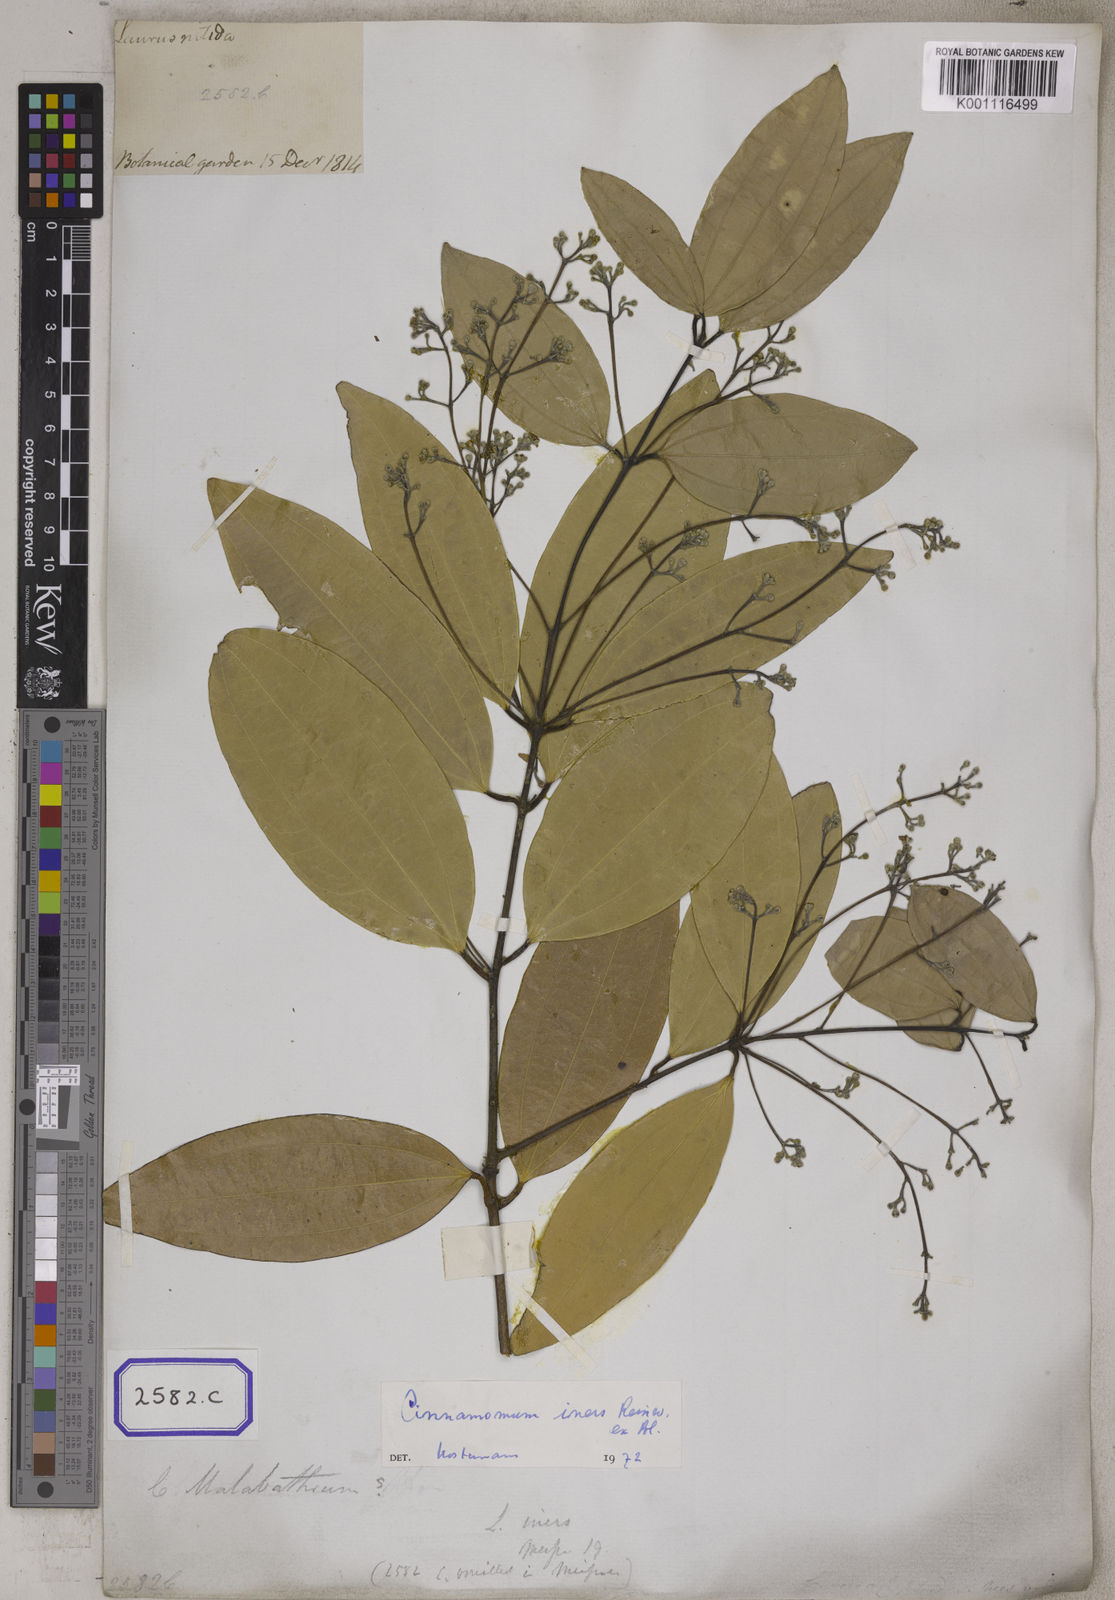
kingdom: Plantae
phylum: Tracheophyta
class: Magnoliopsida
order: Laurales
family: Lauraceae
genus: Cinnamomum
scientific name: Cinnamomum burmanni
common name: Padang cassia
